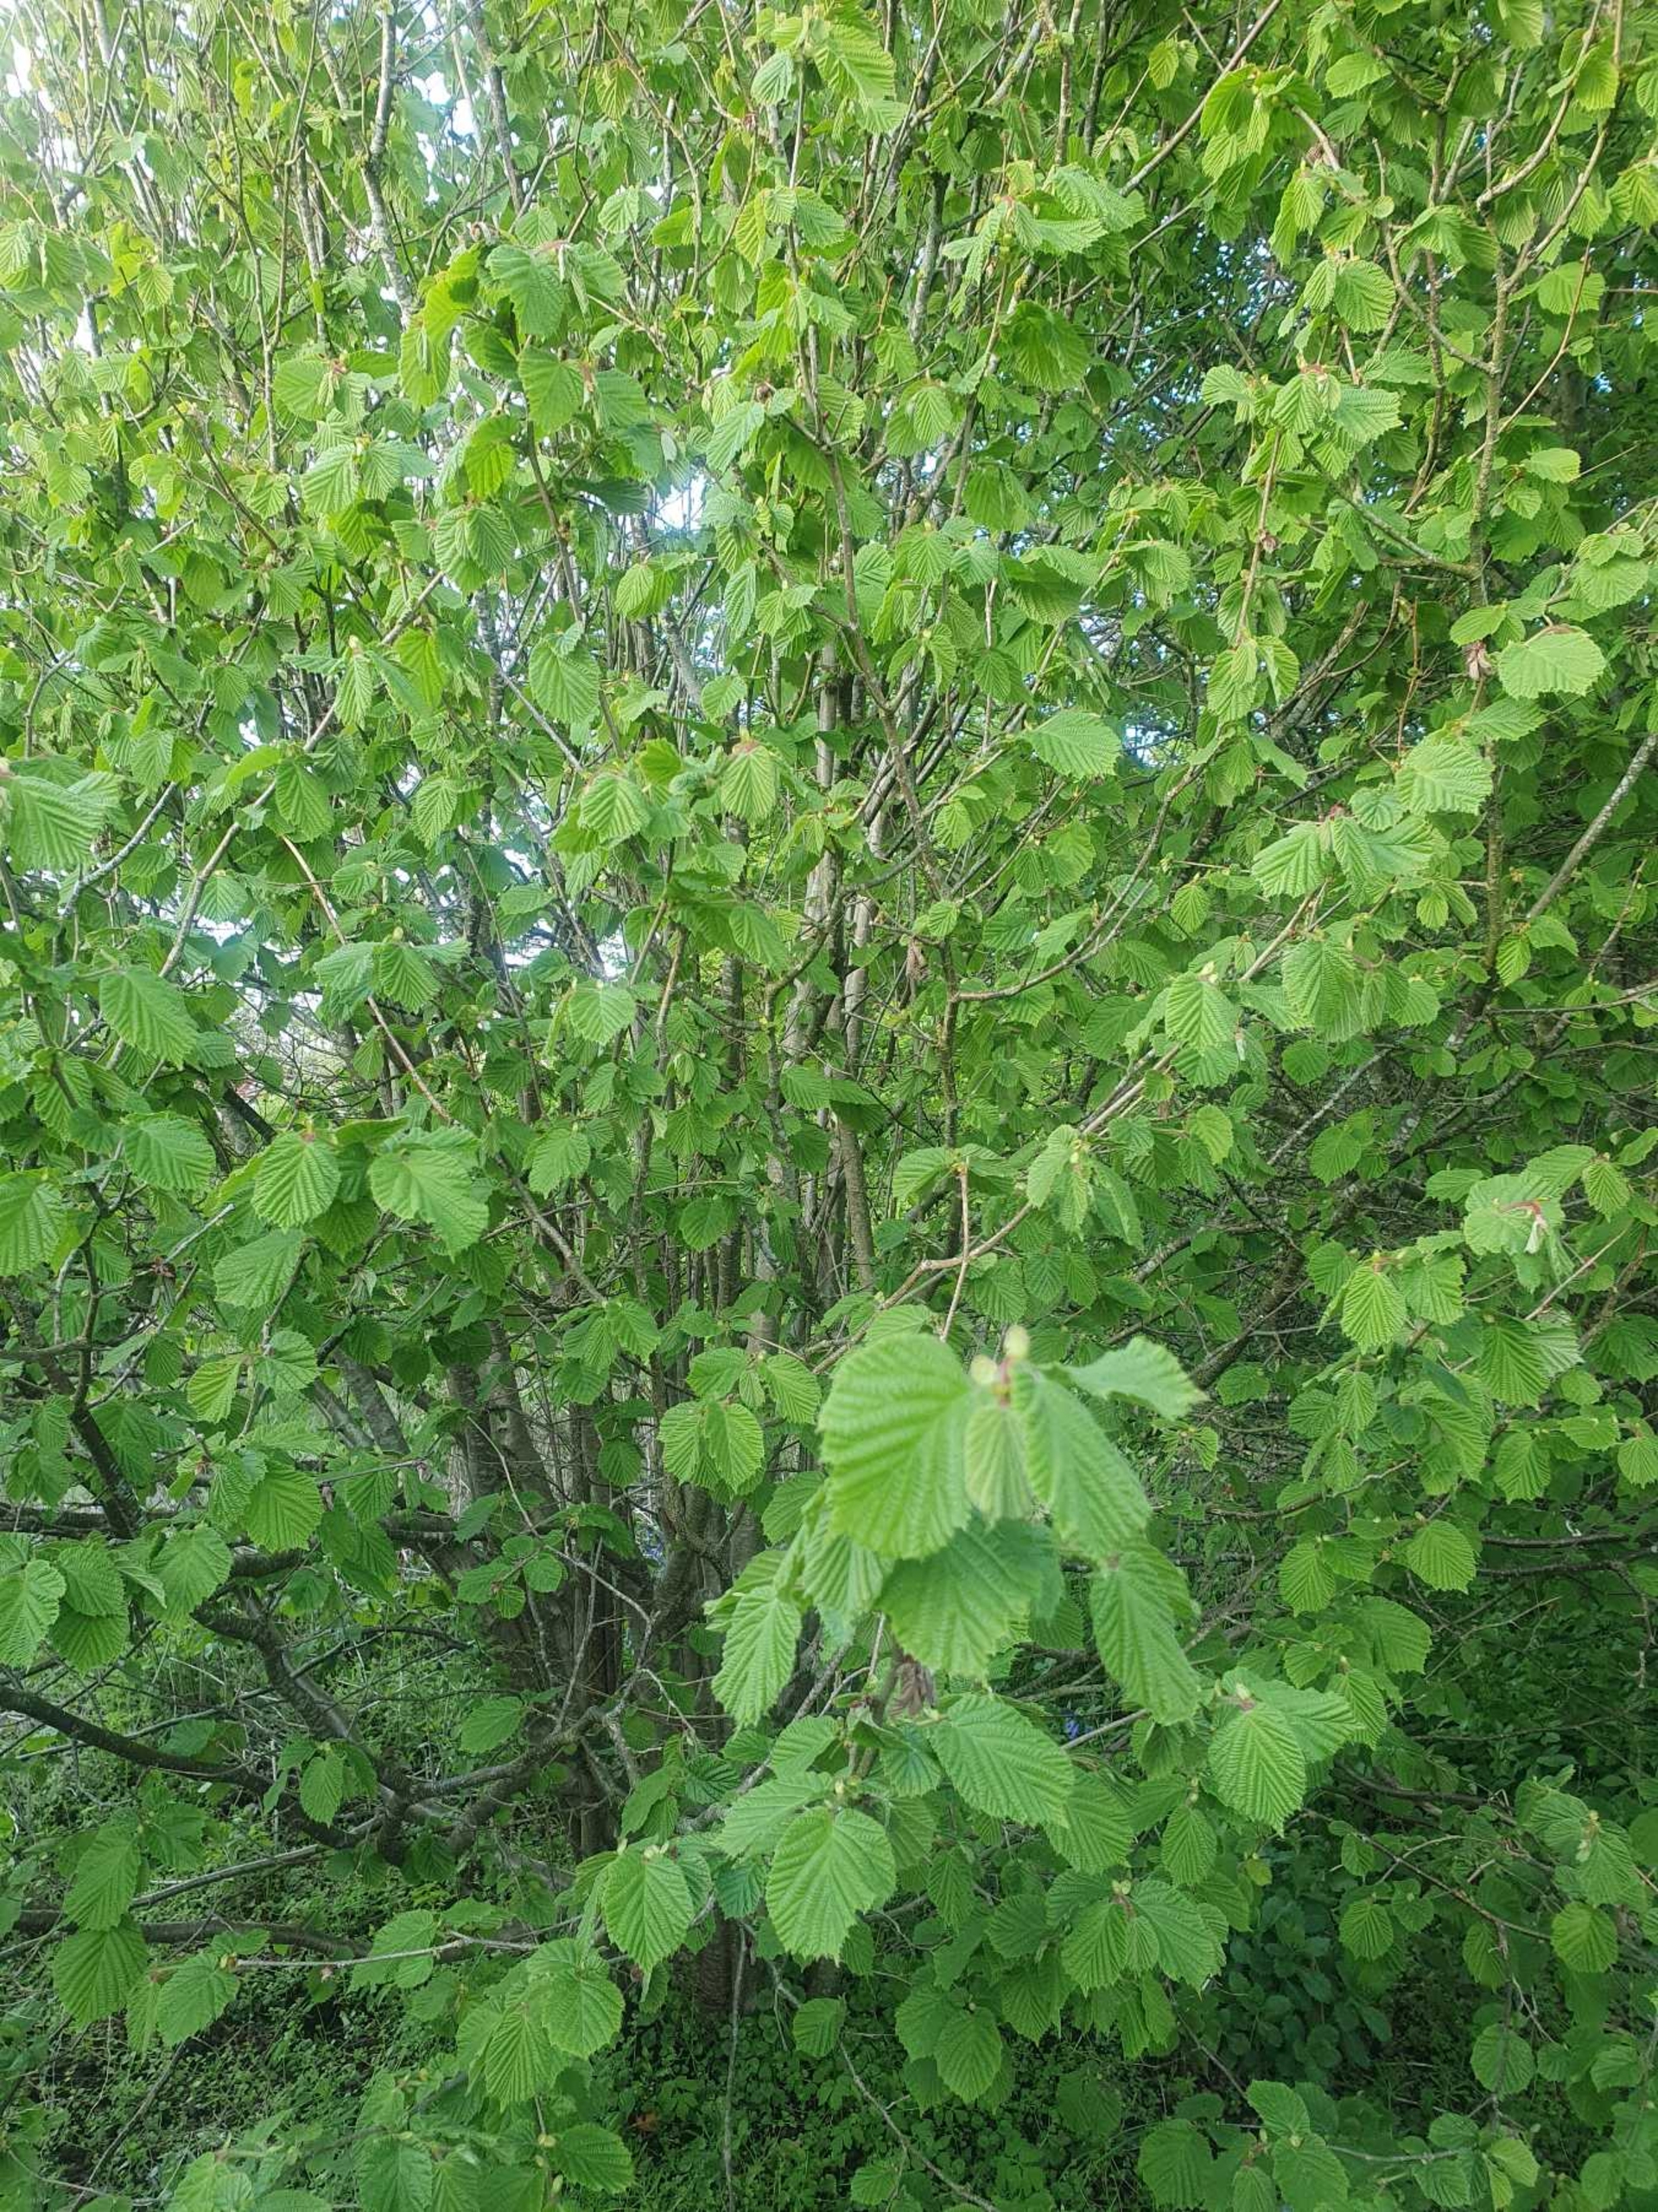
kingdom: Plantae
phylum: Tracheophyta
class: Magnoliopsida
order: Fagales
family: Betulaceae
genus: Corylus
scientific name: Corylus avellana
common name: Hassel
